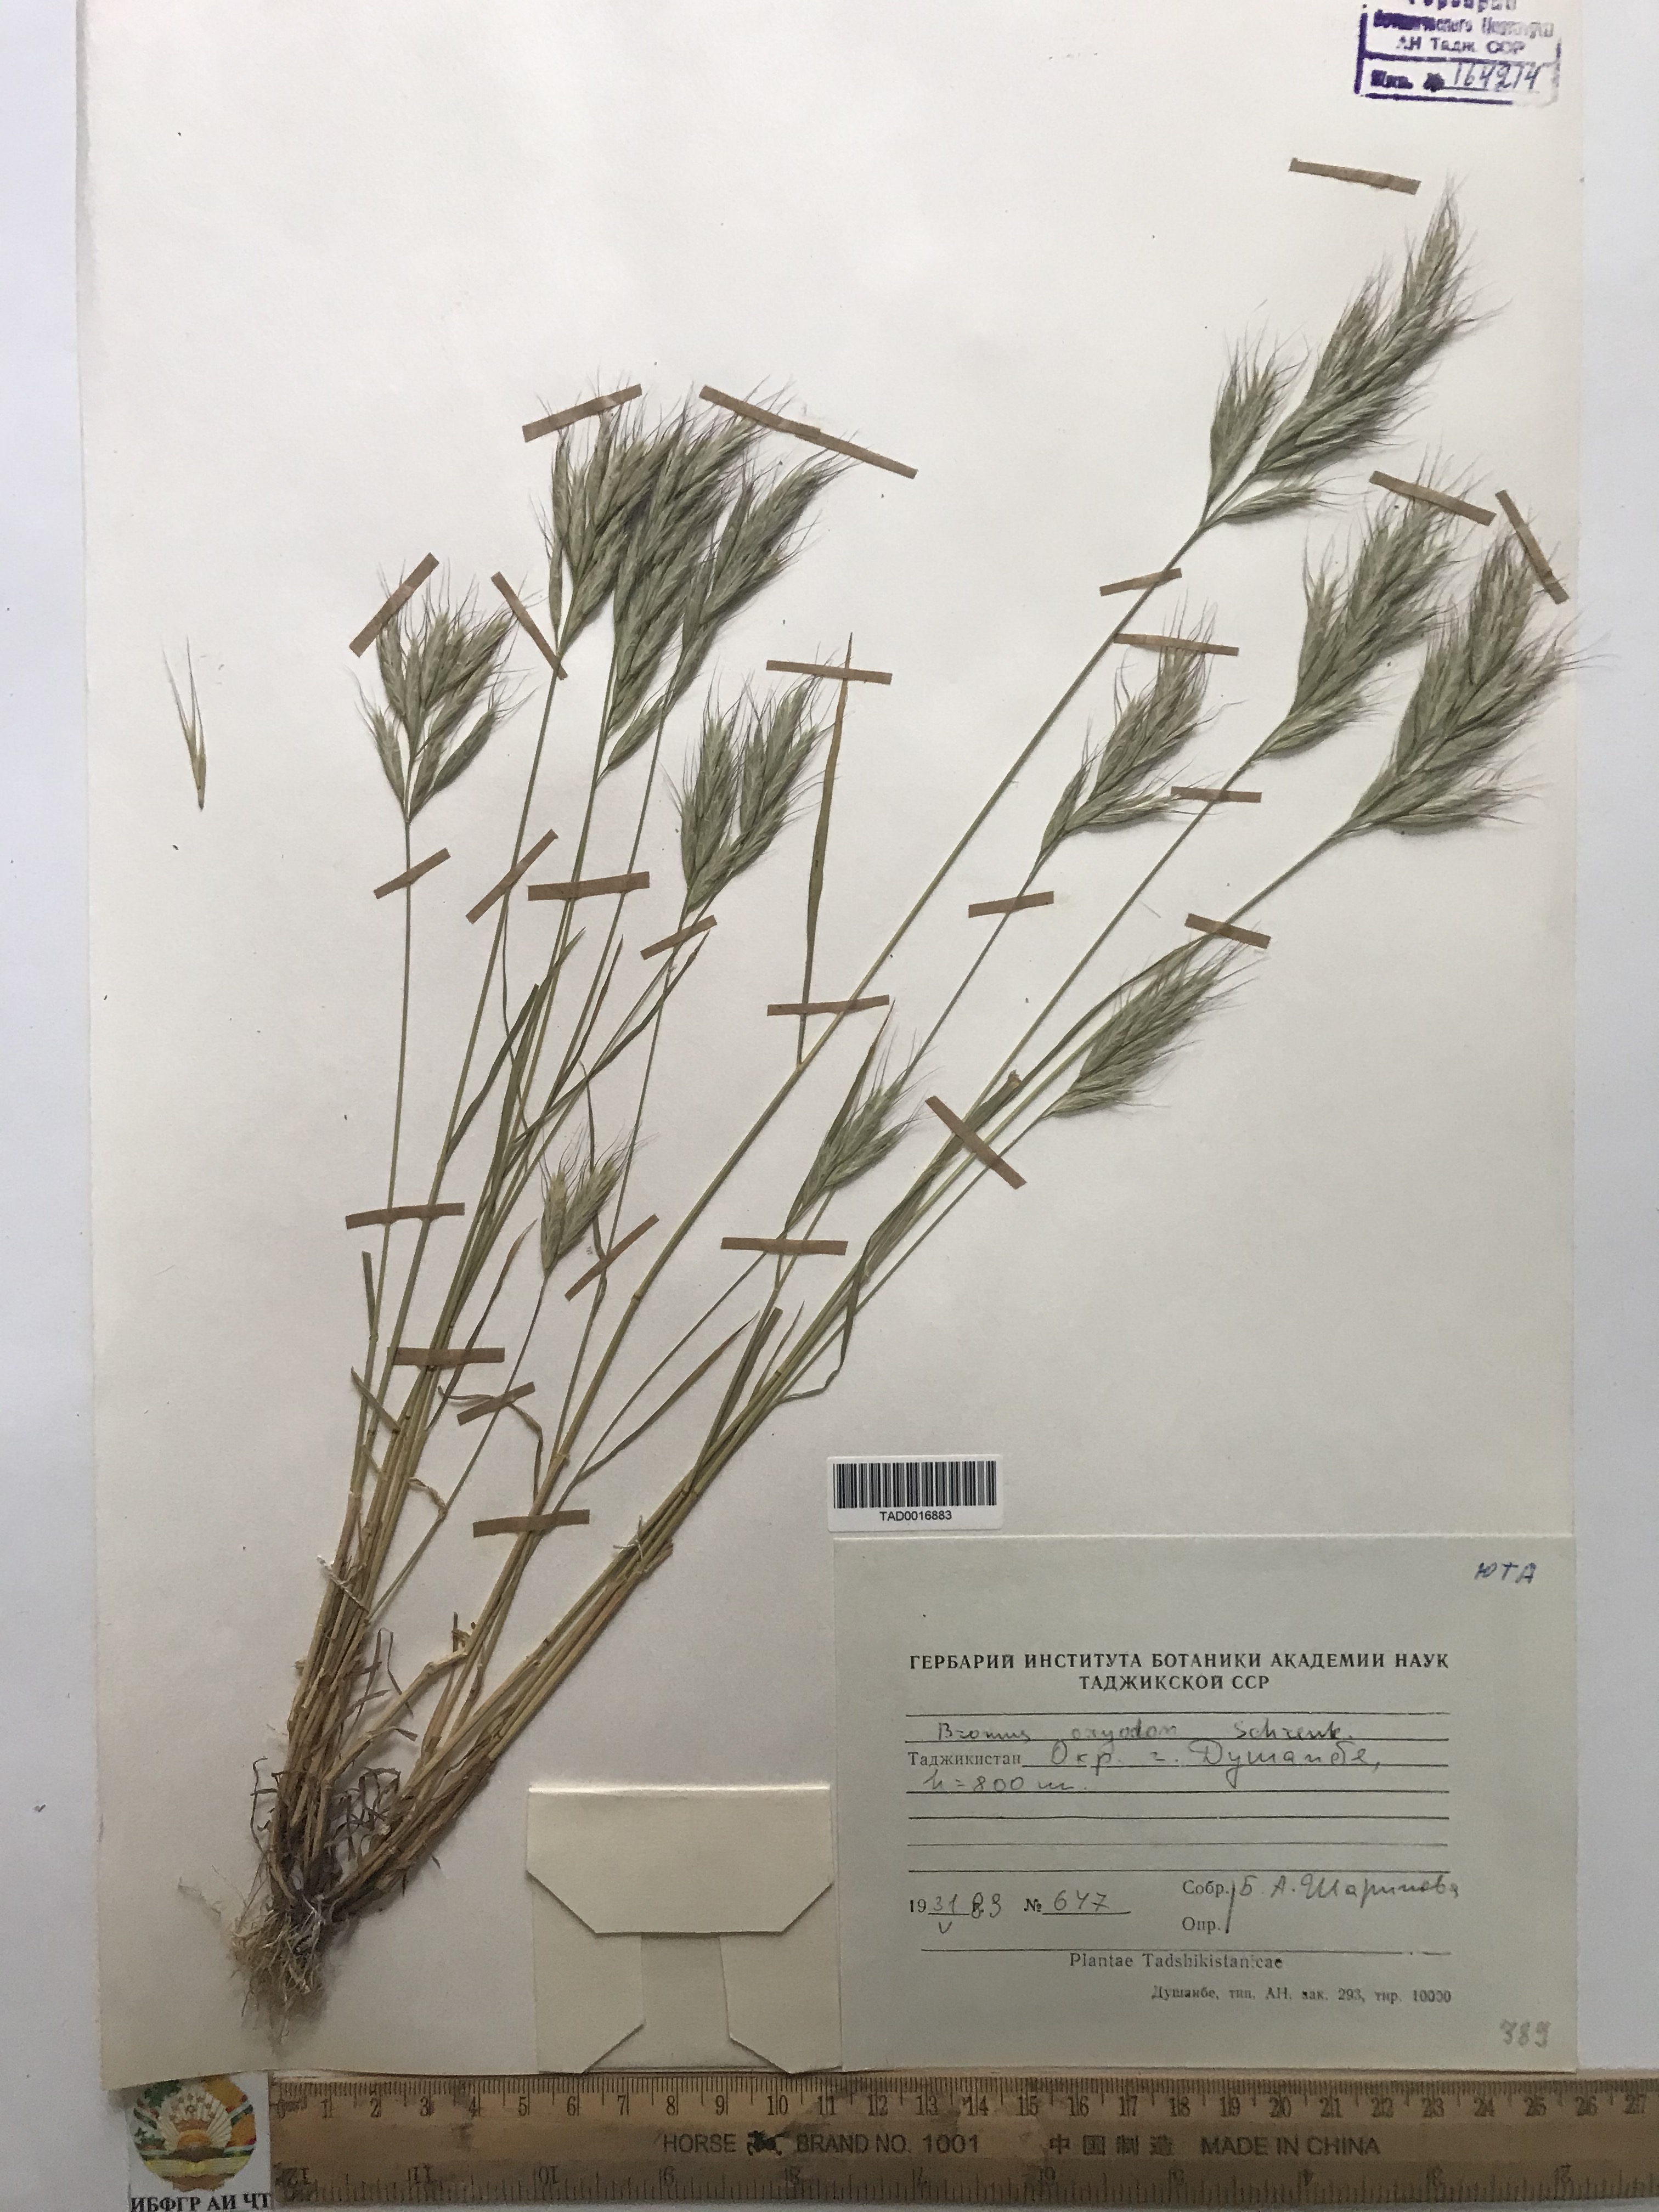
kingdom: Plantae
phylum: Tracheophyta
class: Liliopsida
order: Poales
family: Poaceae
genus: Bromus
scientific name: Bromus oxyodon
